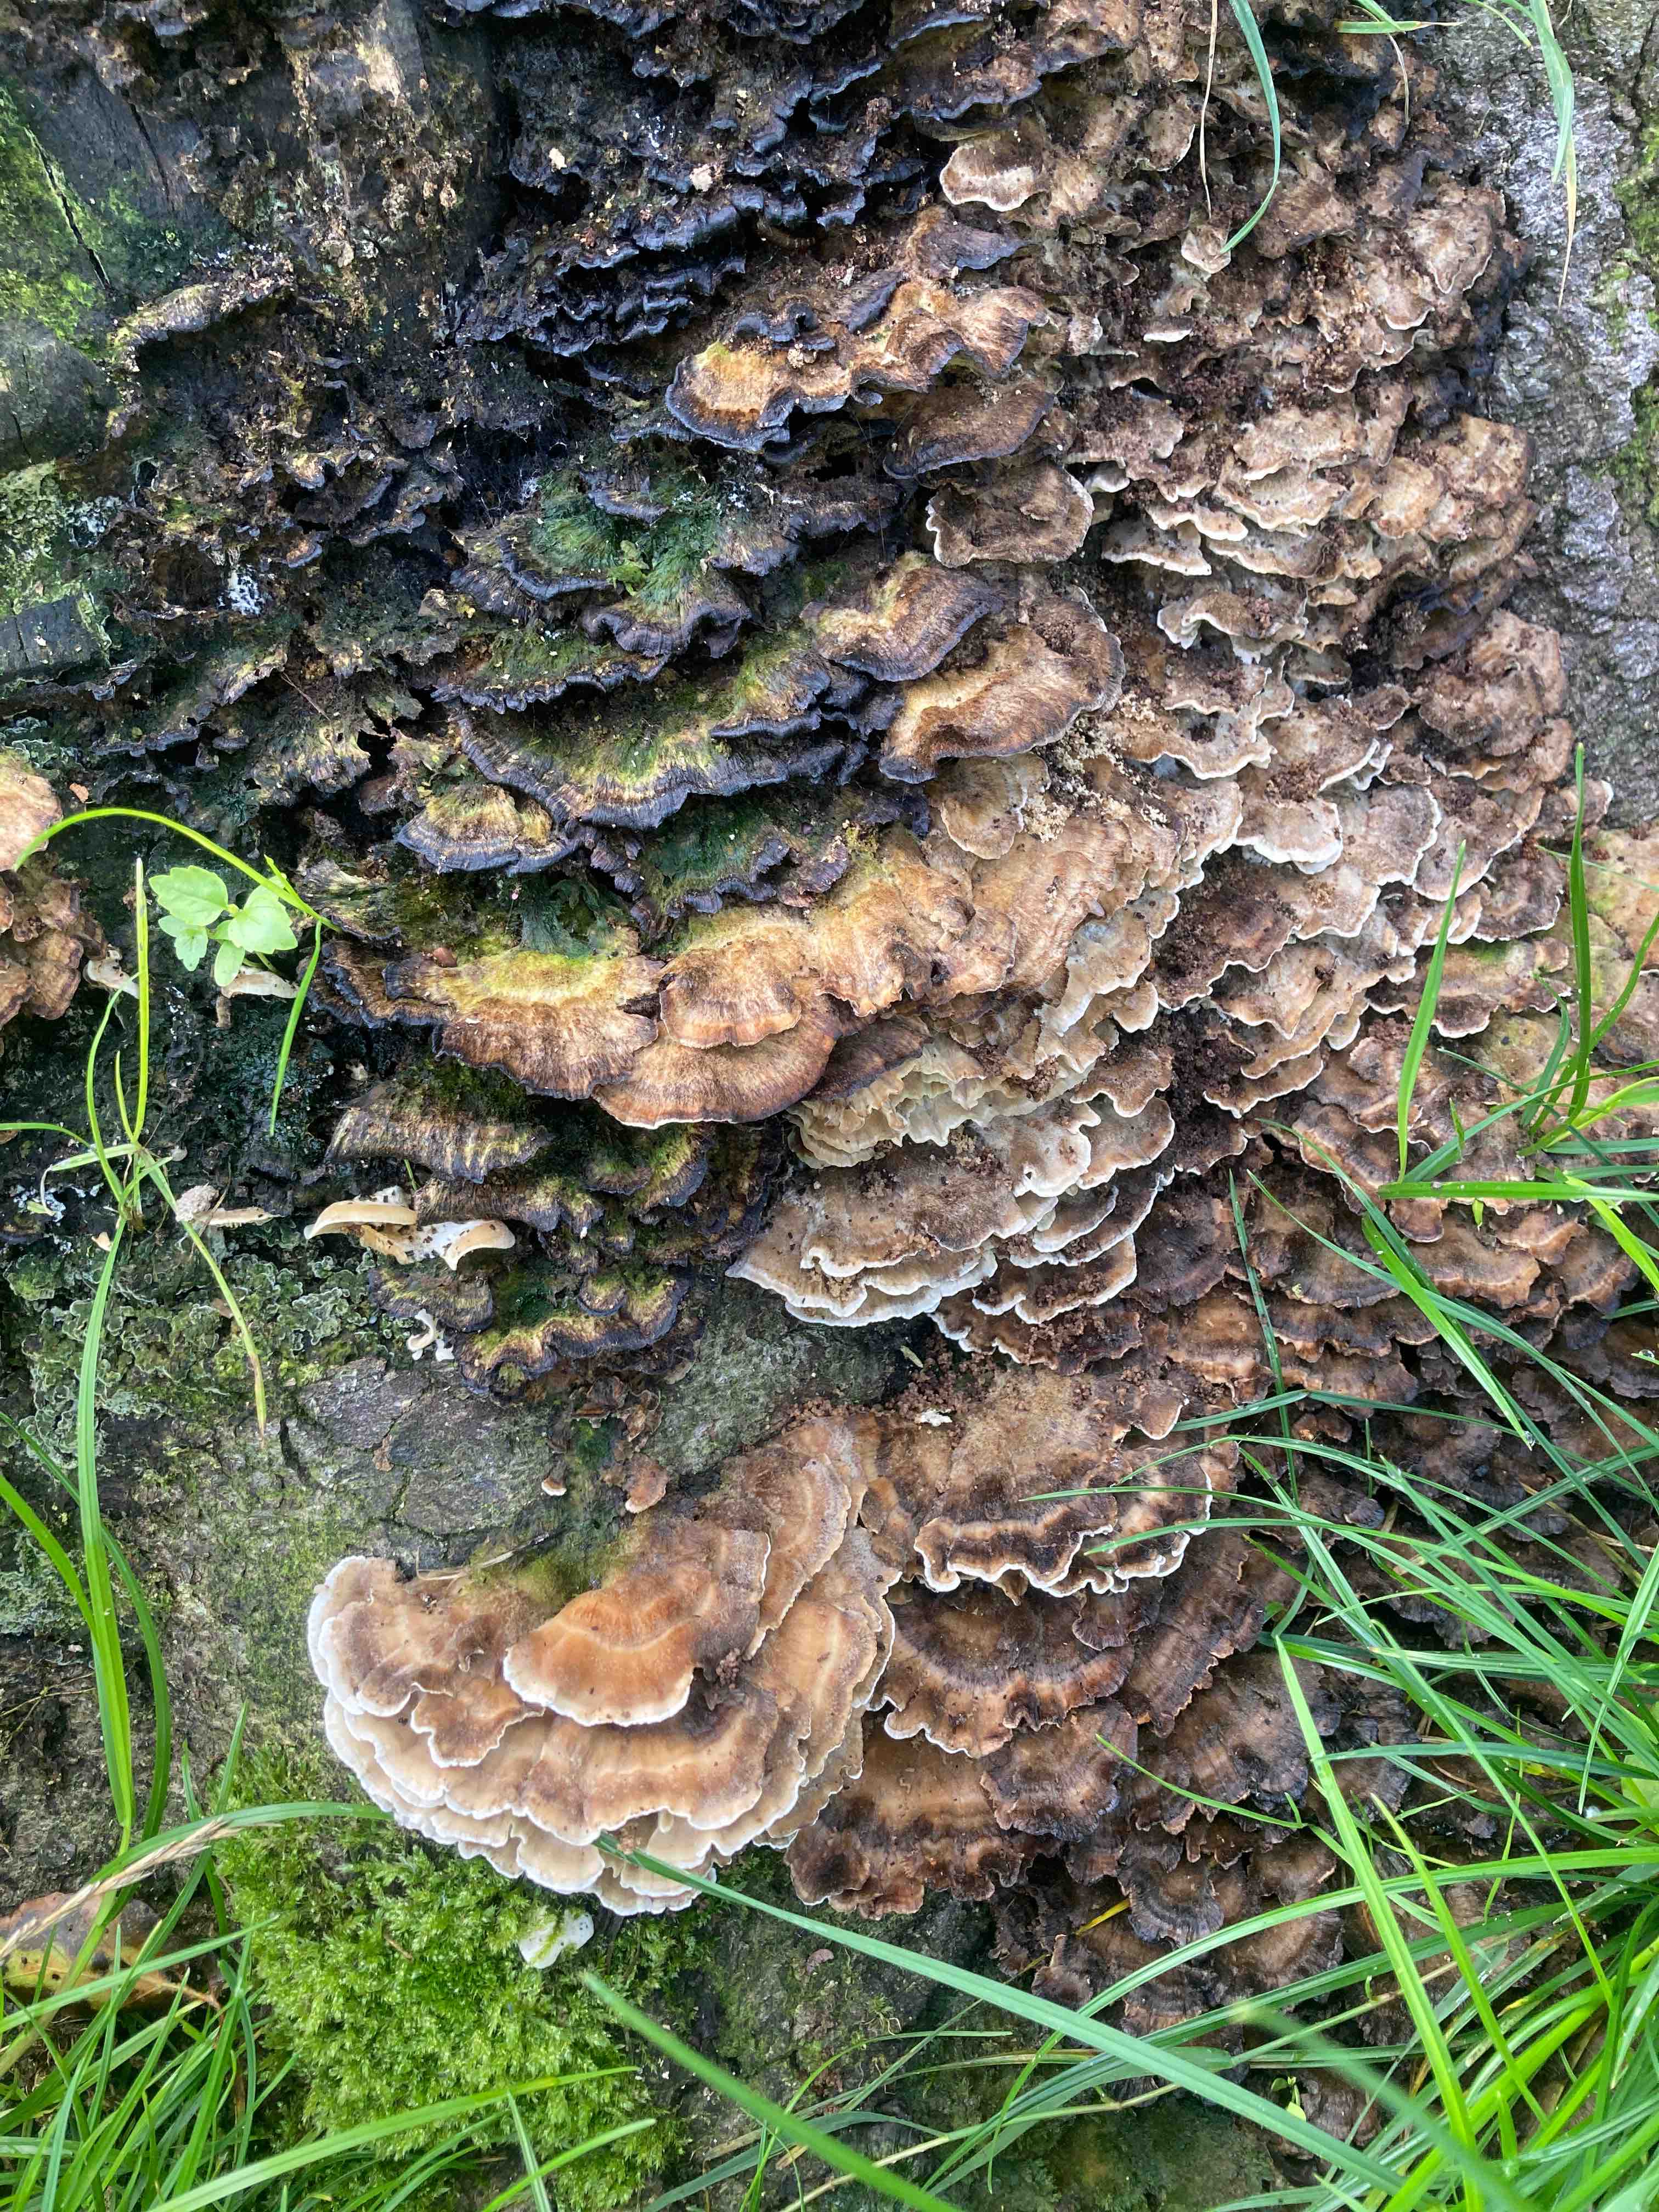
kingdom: Fungi
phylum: Basidiomycota
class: Agaricomycetes
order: Polyporales
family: Phanerochaetaceae
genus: Bjerkandera
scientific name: Bjerkandera adusta
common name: sveden sodporesvamp
